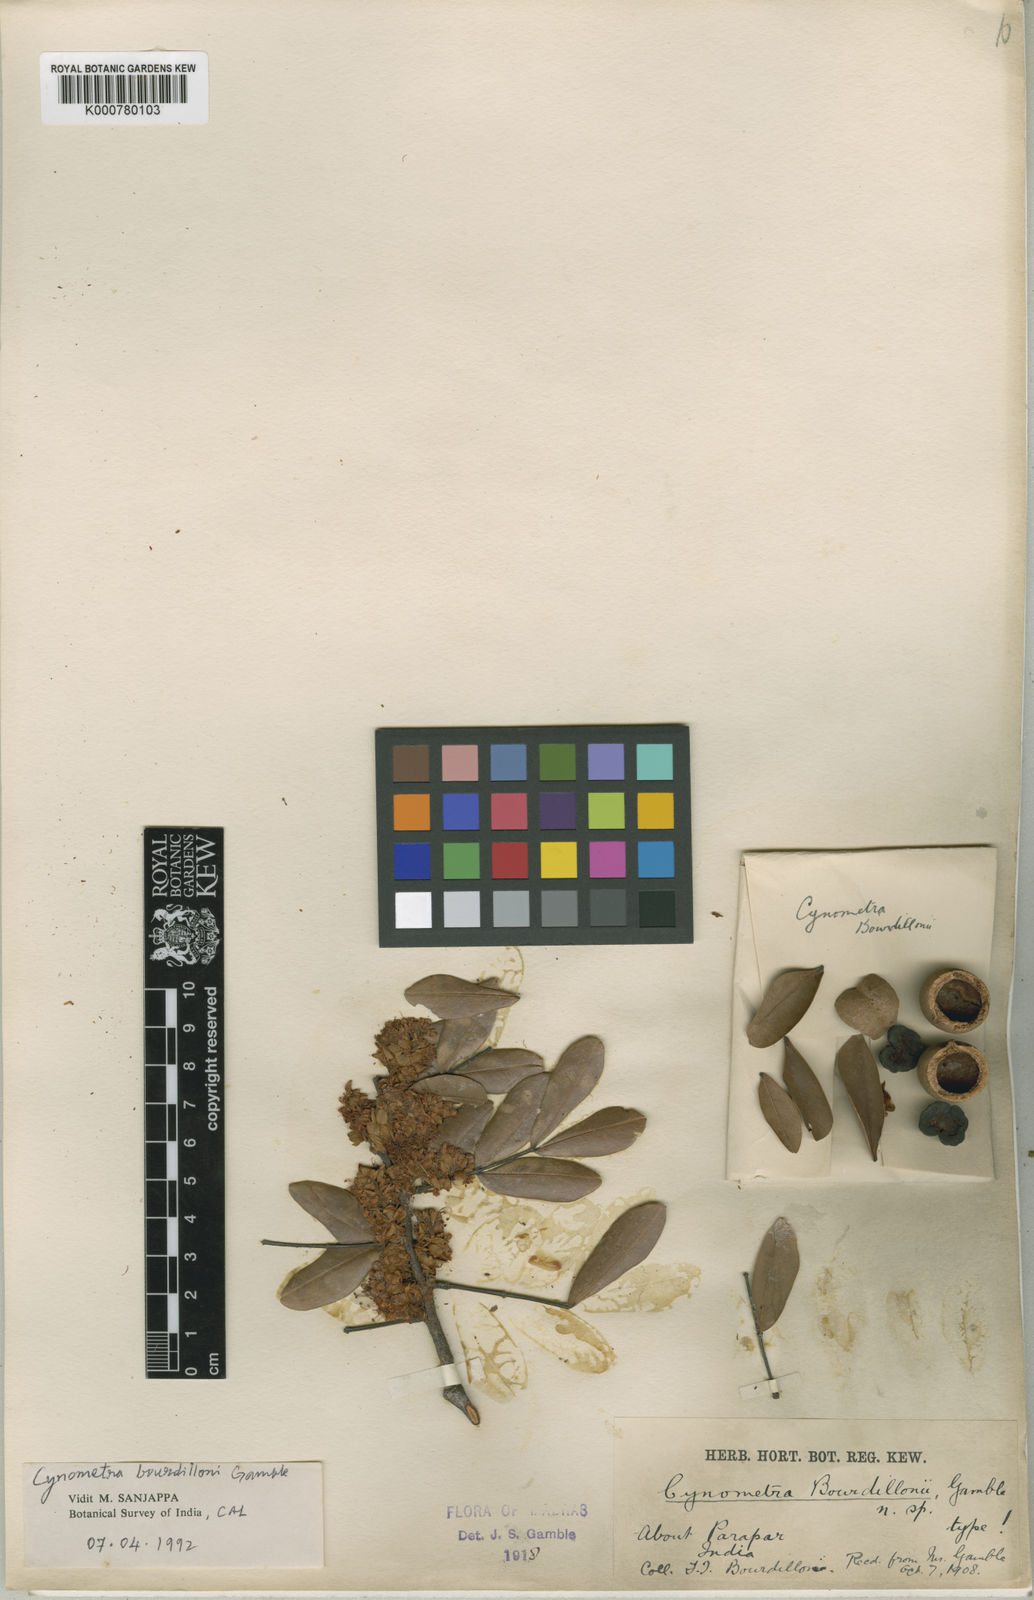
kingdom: Plantae
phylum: Tracheophyta
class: Magnoliopsida
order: Fabales
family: Fabaceae
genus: Cynometra
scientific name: Cynometra bourdillonii
